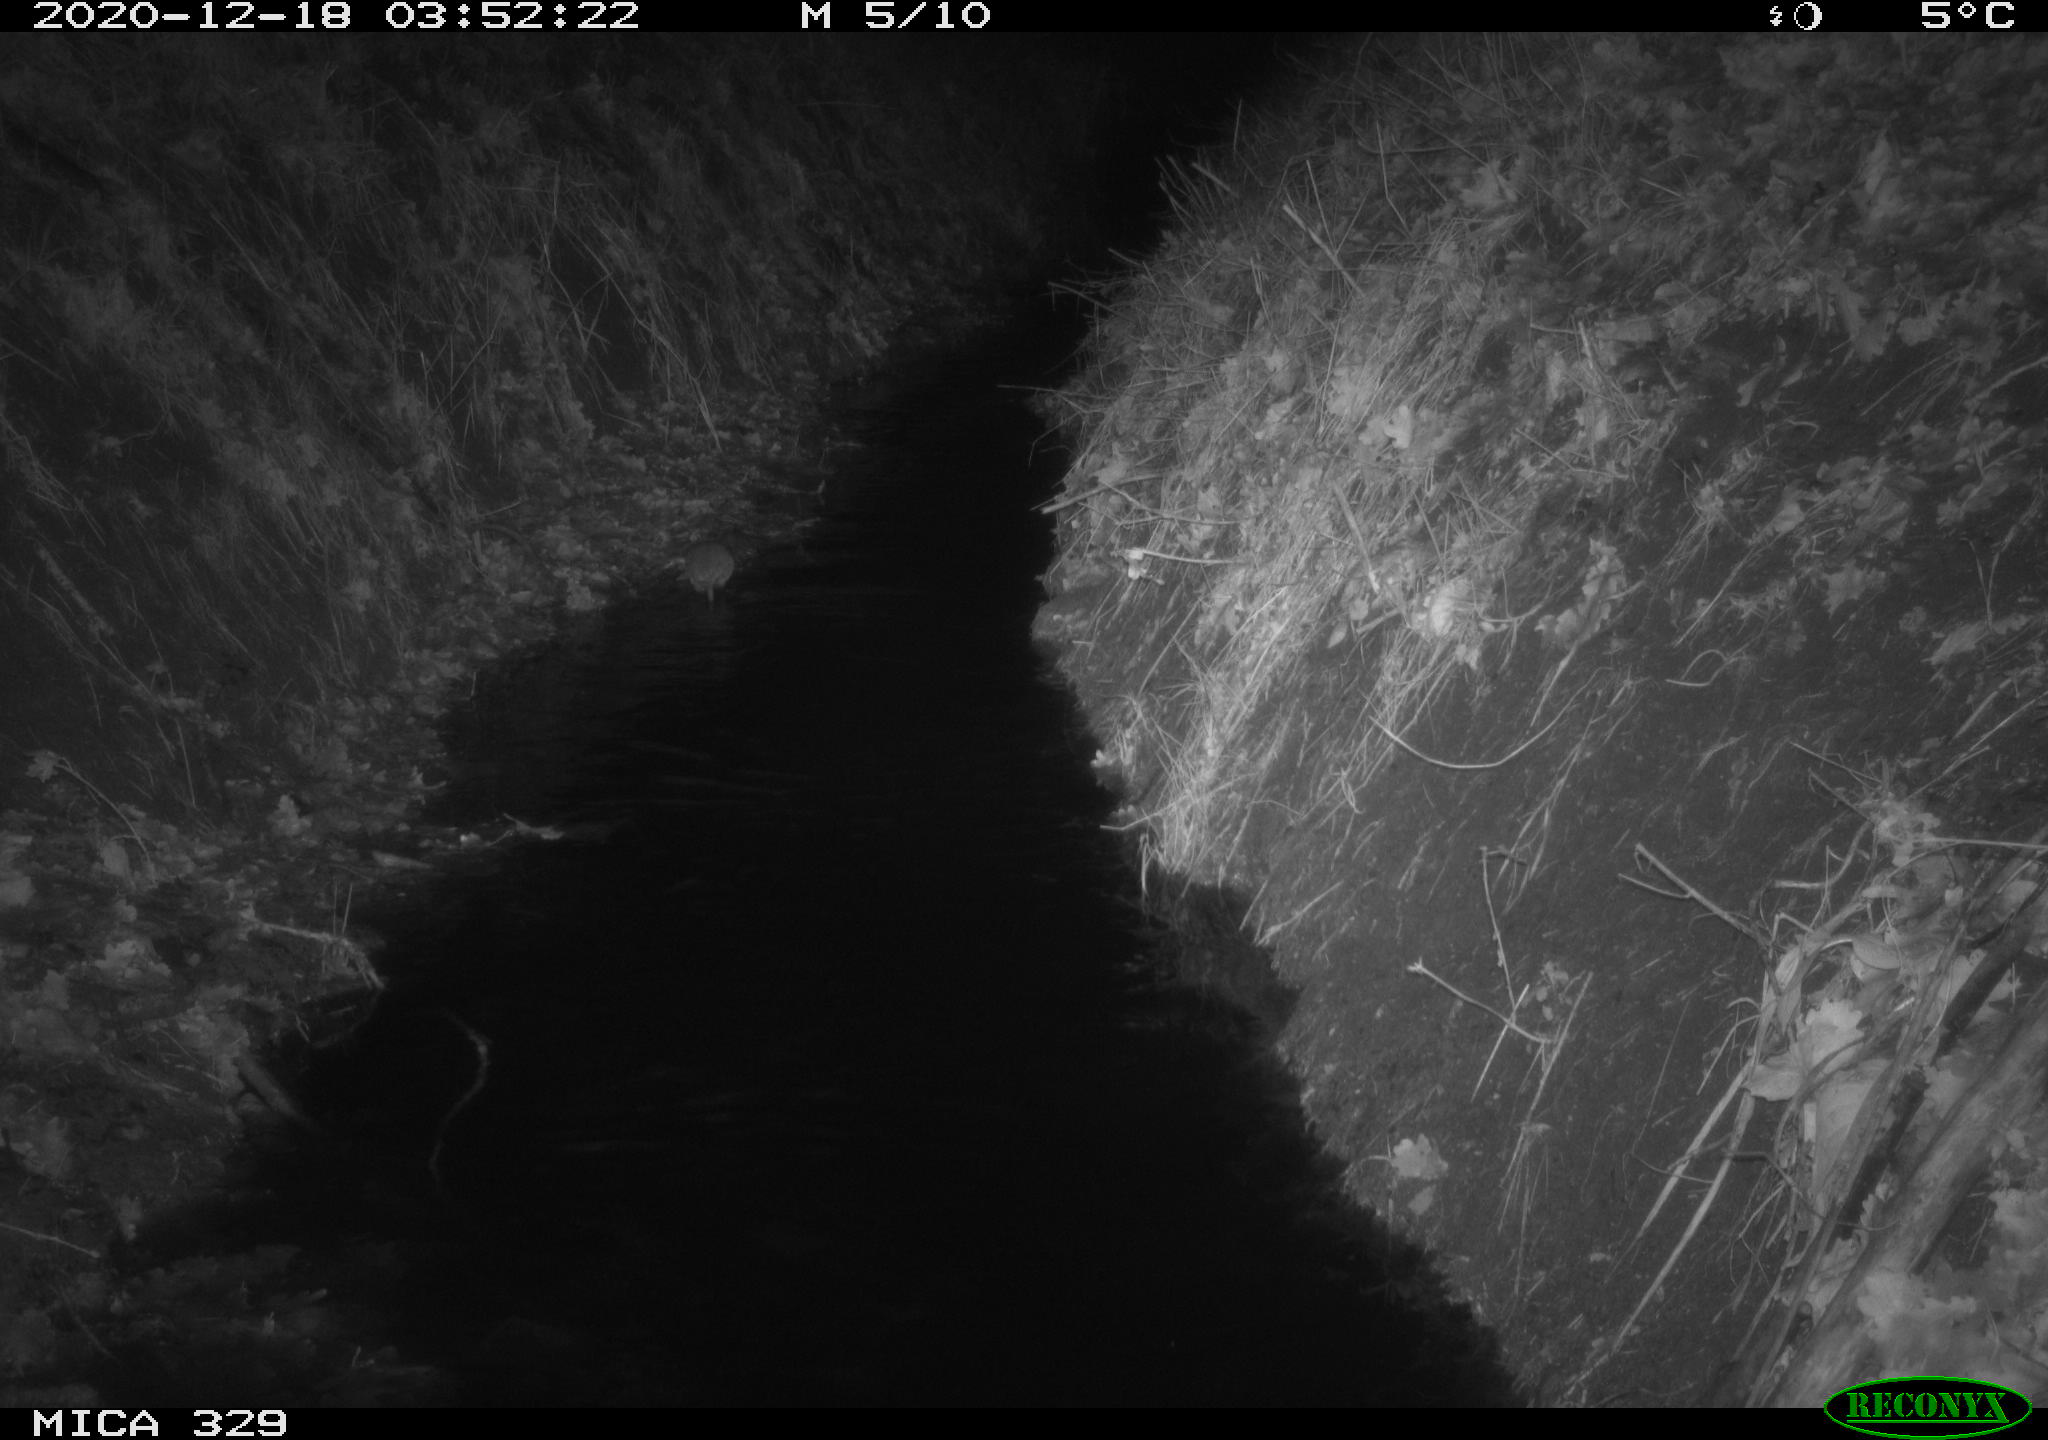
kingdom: Animalia
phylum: Chordata
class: Mammalia
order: Rodentia
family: Muridae
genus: Rattus
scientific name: Rattus norvegicus
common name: Brown rat
